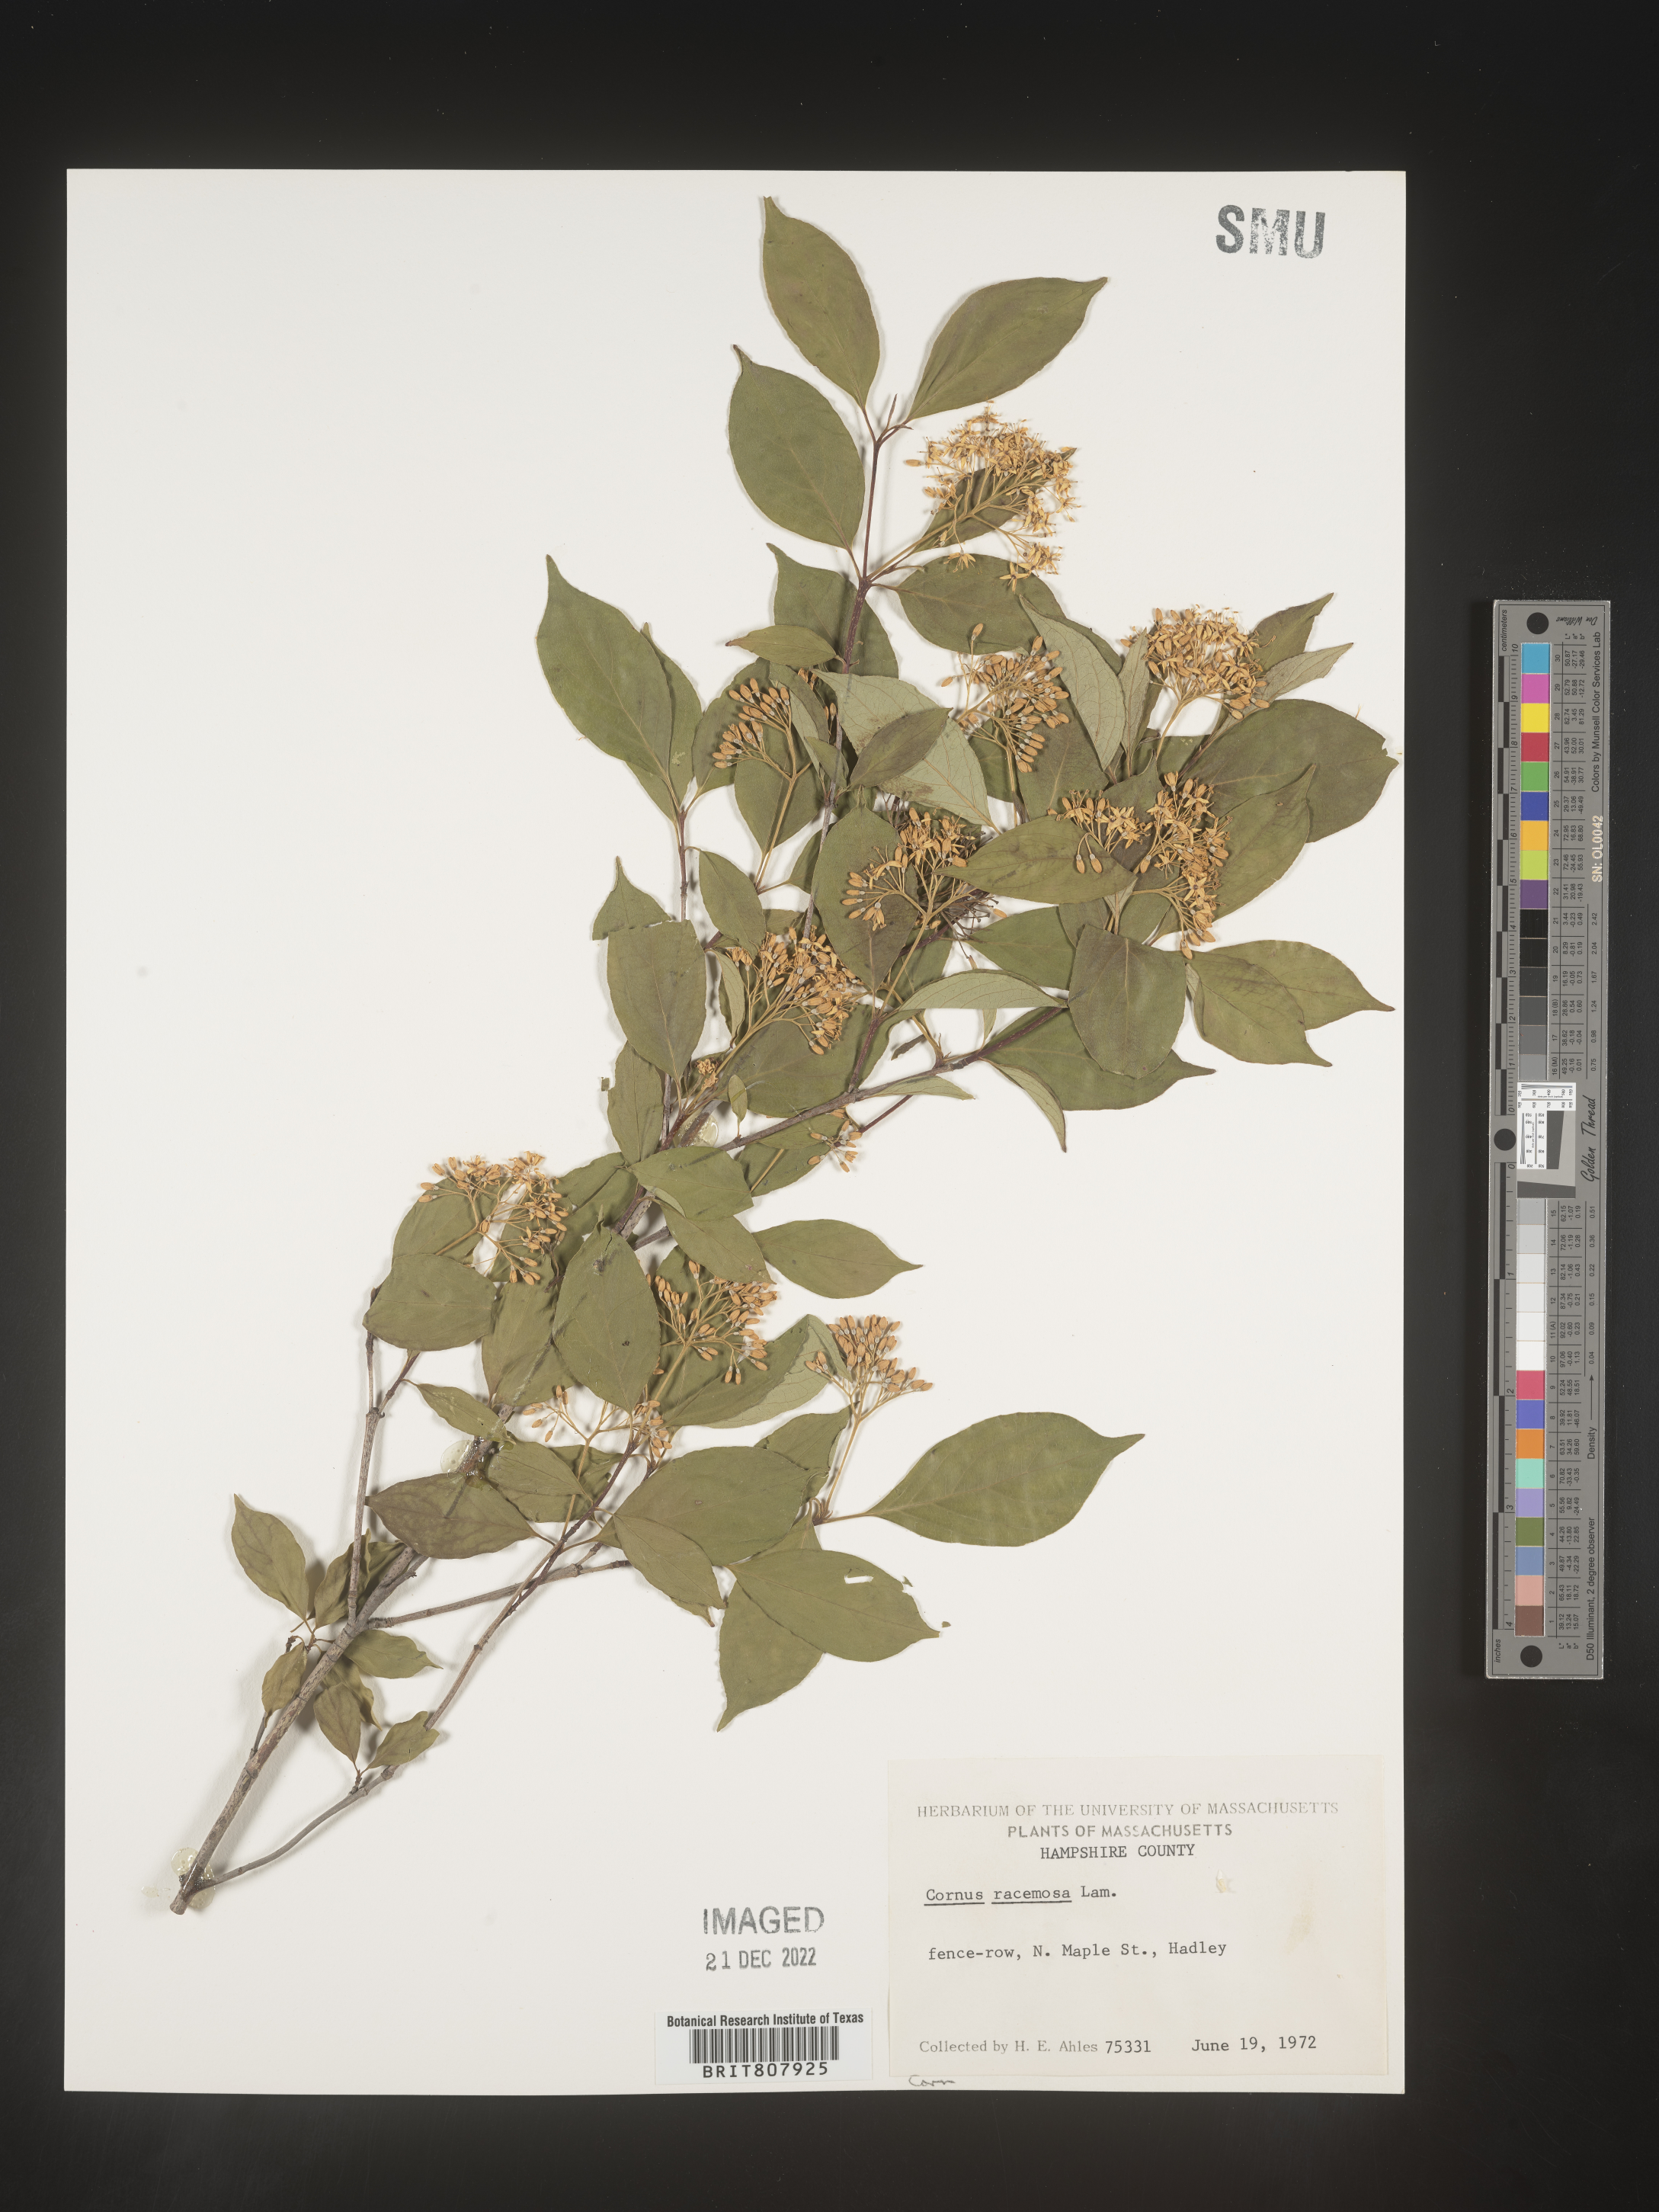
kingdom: Plantae
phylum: Tracheophyta
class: Magnoliopsida
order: Cornales
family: Cornaceae
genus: Cornus
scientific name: Cornus racemosa
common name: Panicled dogwood
